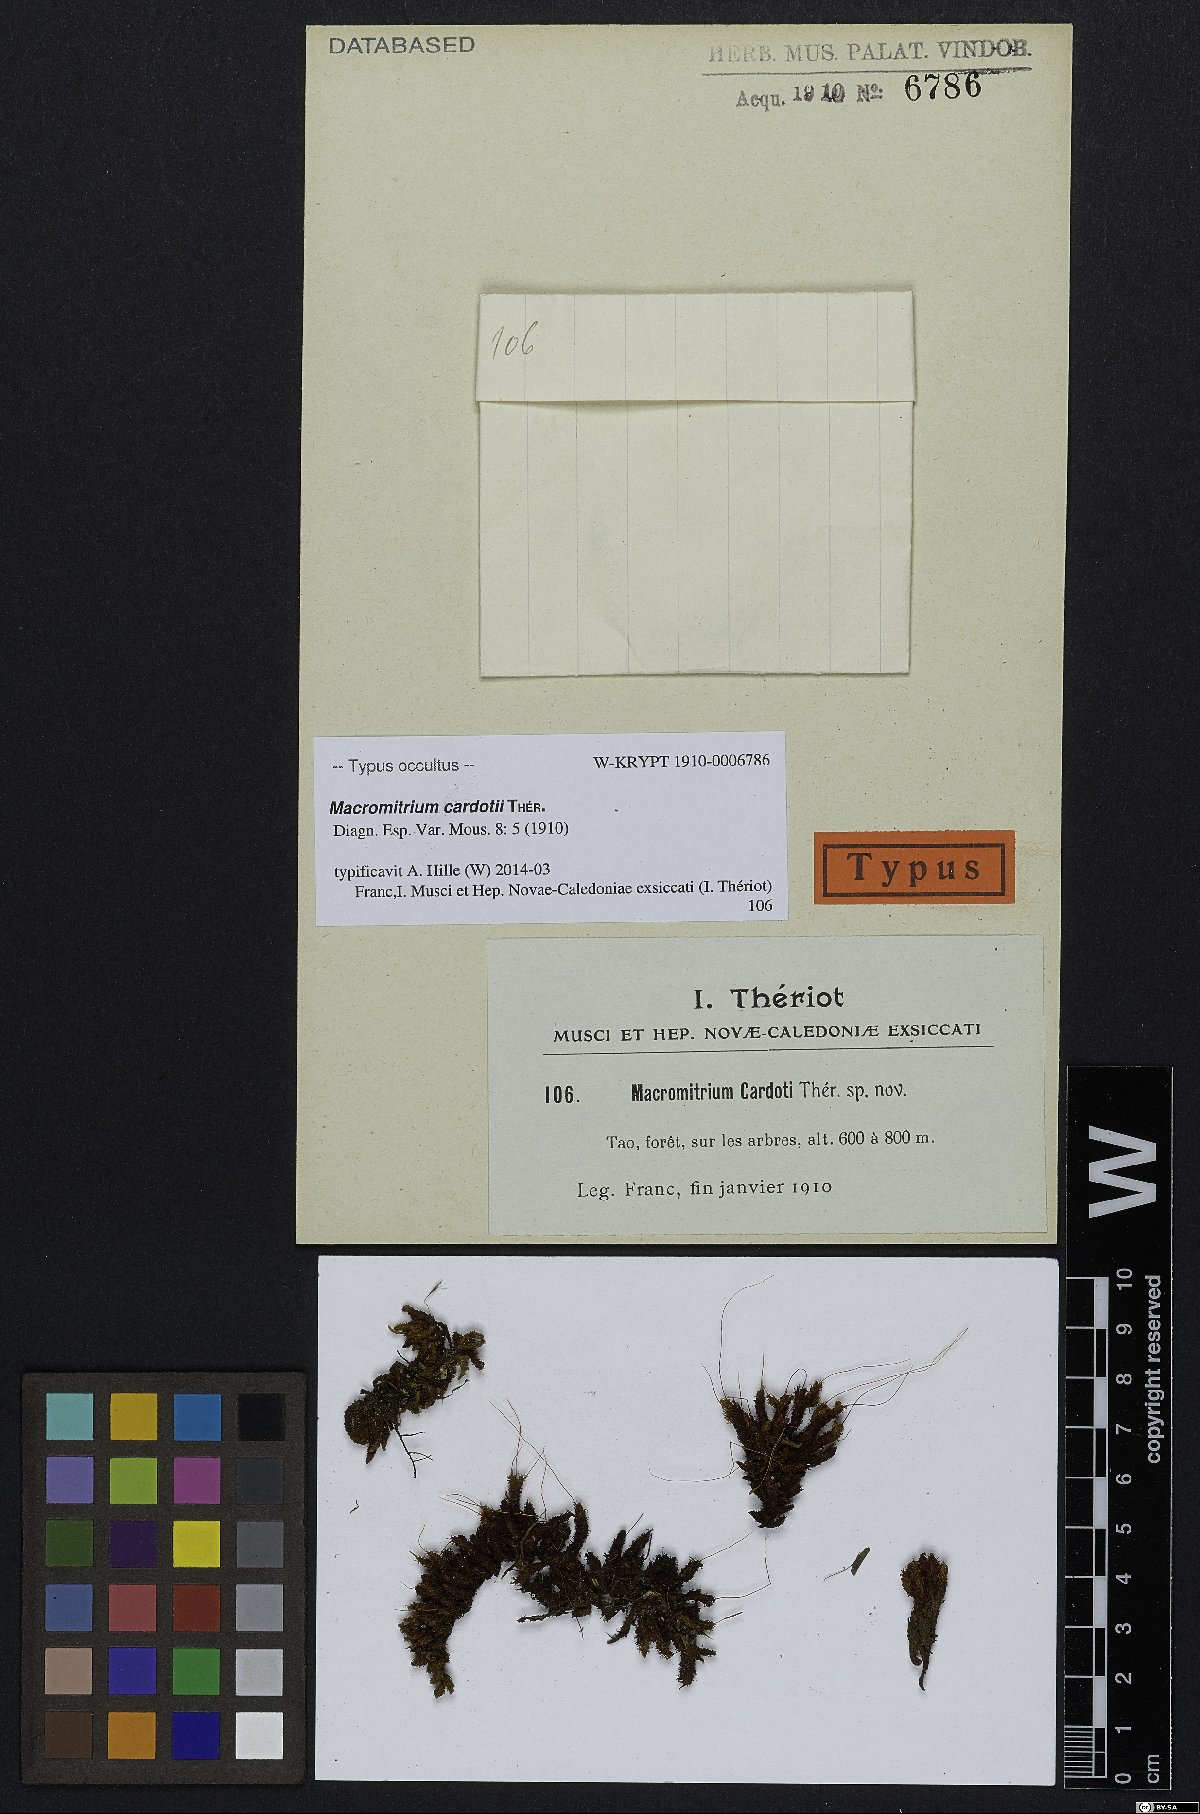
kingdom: Plantae
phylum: Bryophyta
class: Bryopsida
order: Orthotrichales
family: Orthotrichaceae
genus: Macromitrium
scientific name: Macromitrium cardotii
